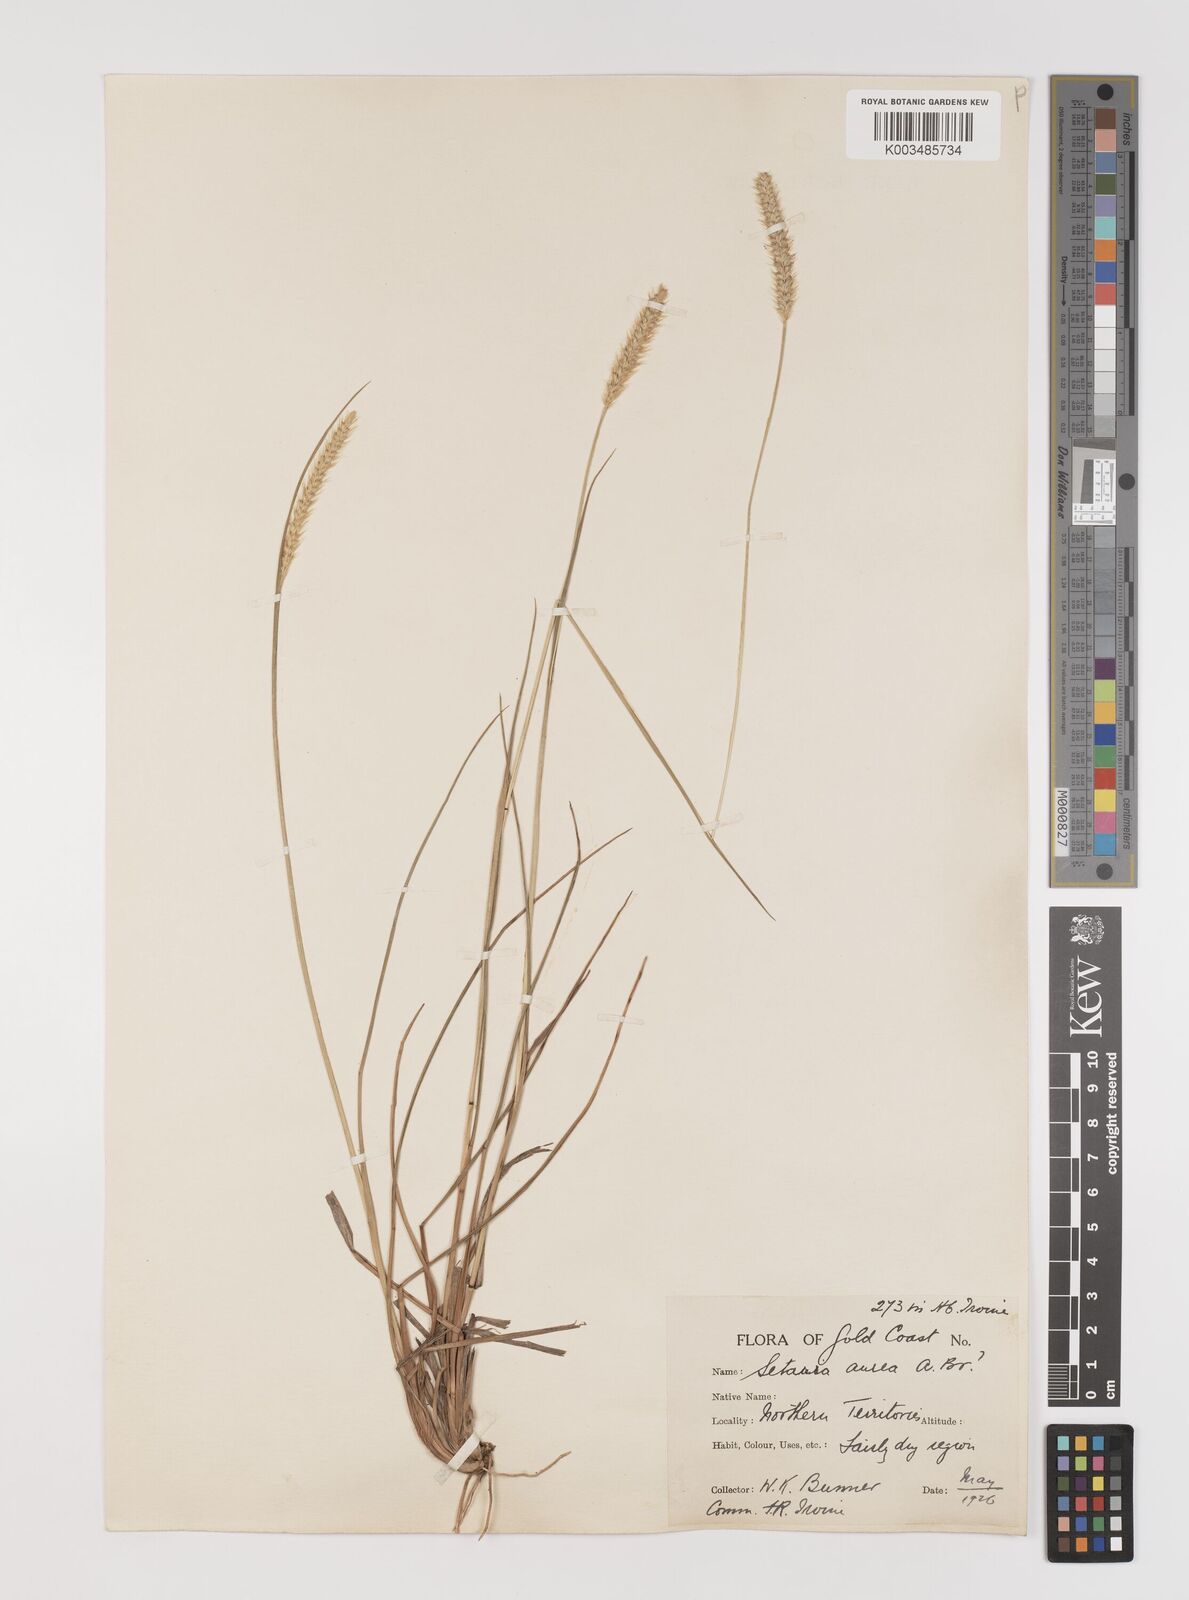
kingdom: Plantae
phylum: Tracheophyta
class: Liliopsida
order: Poales
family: Poaceae
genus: Setaria
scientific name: Setaria sphacelata
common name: African bristlegrass
